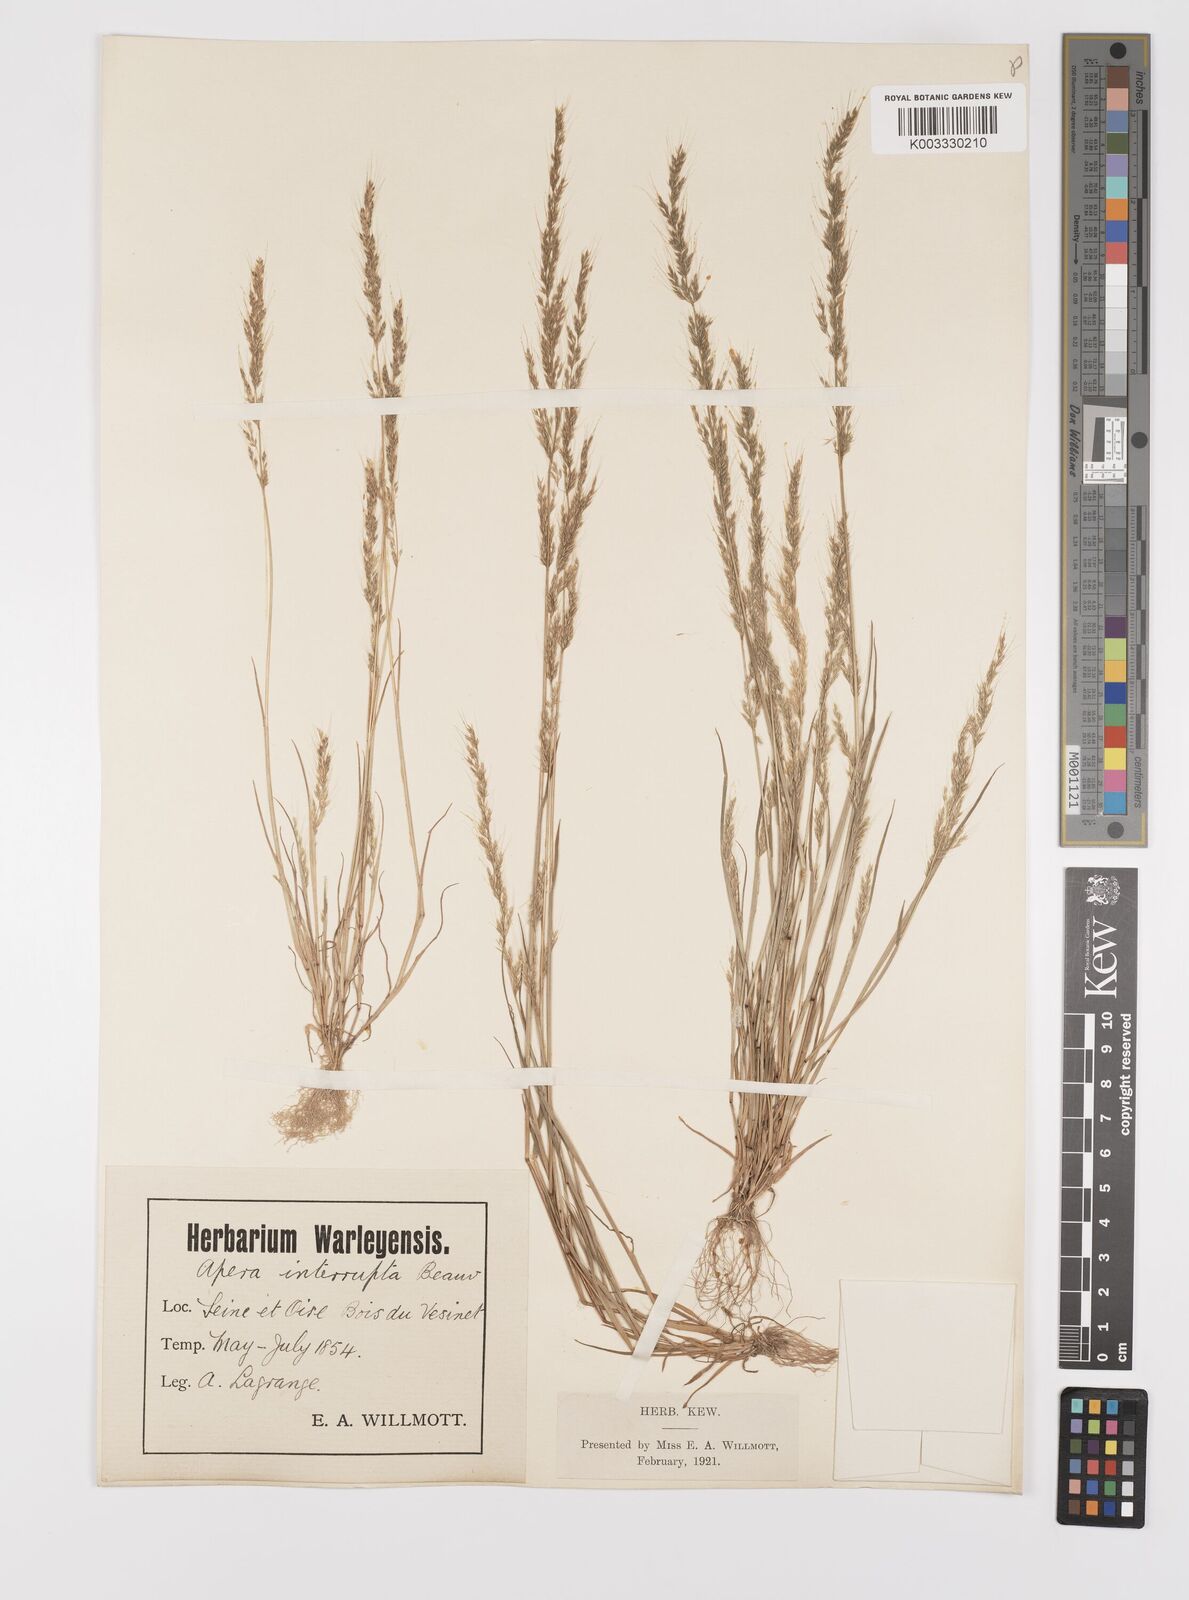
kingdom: Plantae
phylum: Tracheophyta
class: Liliopsida
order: Poales
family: Poaceae
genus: Apera
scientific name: Apera interrupta
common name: Dense silky-bent
